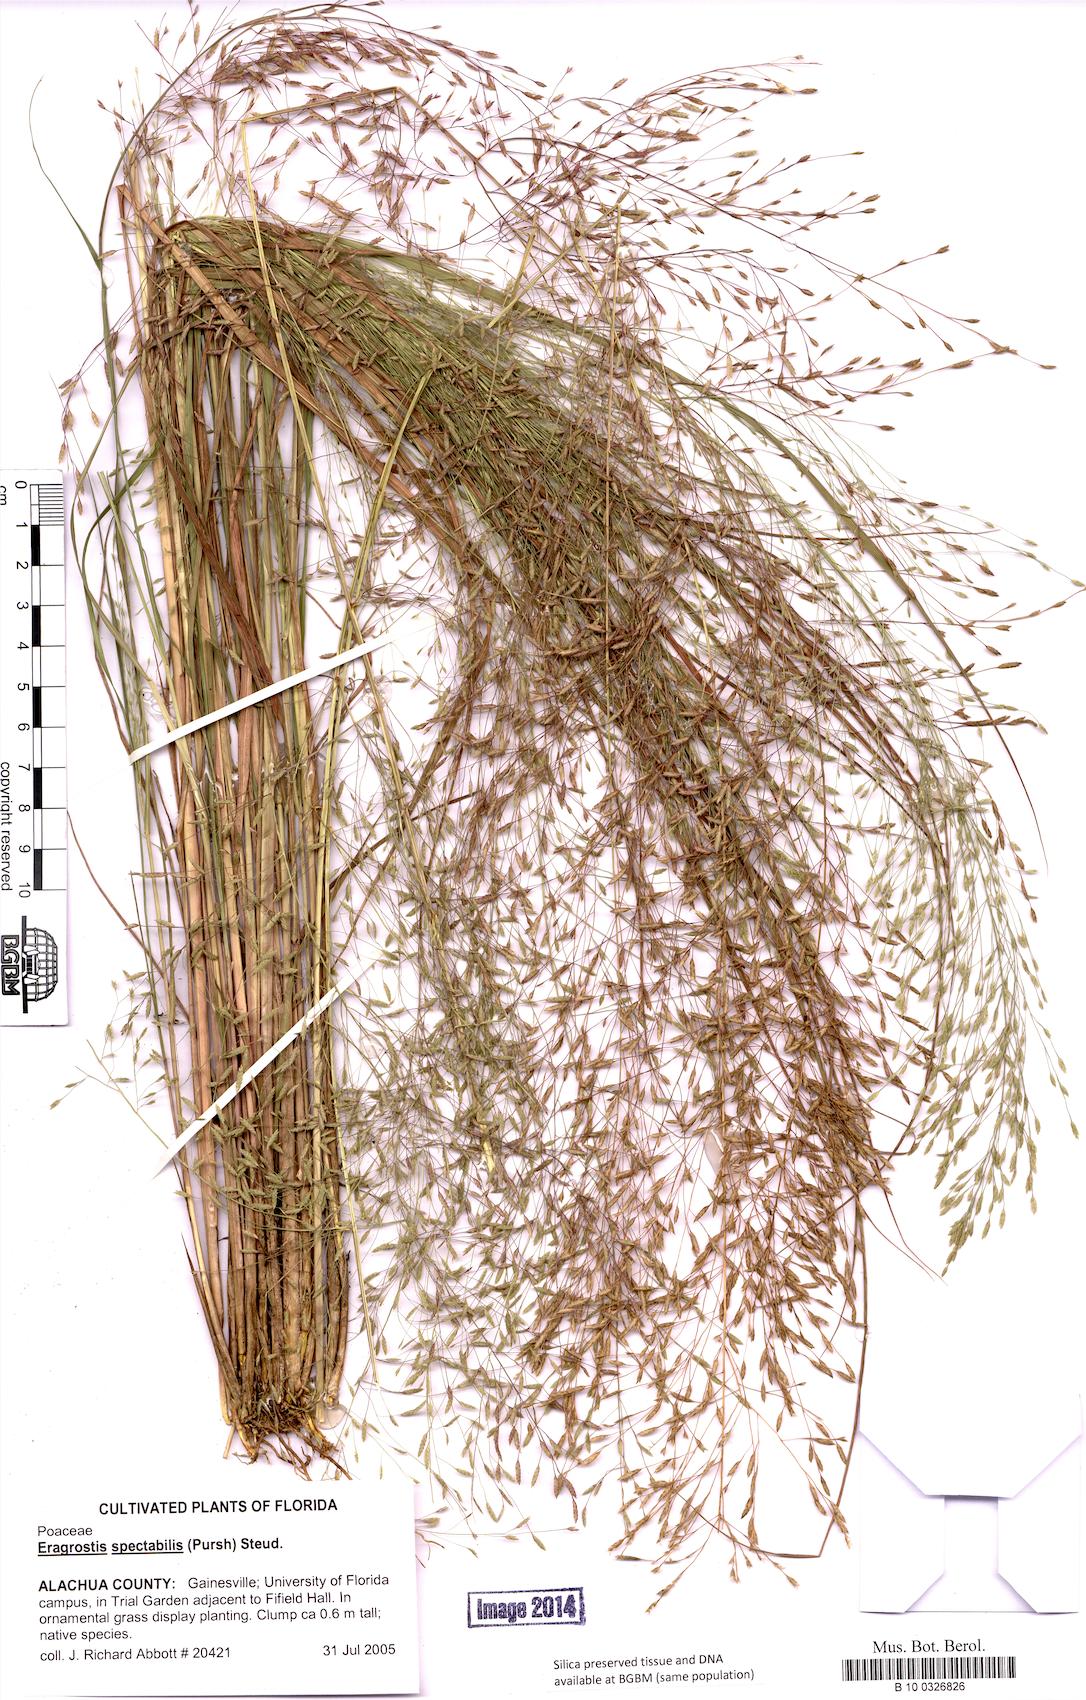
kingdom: Plantae
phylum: Tracheophyta
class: Liliopsida
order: Poales
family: Poaceae
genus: Eragrostis
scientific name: Eragrostis spectabilis
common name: Petticoat-climber
